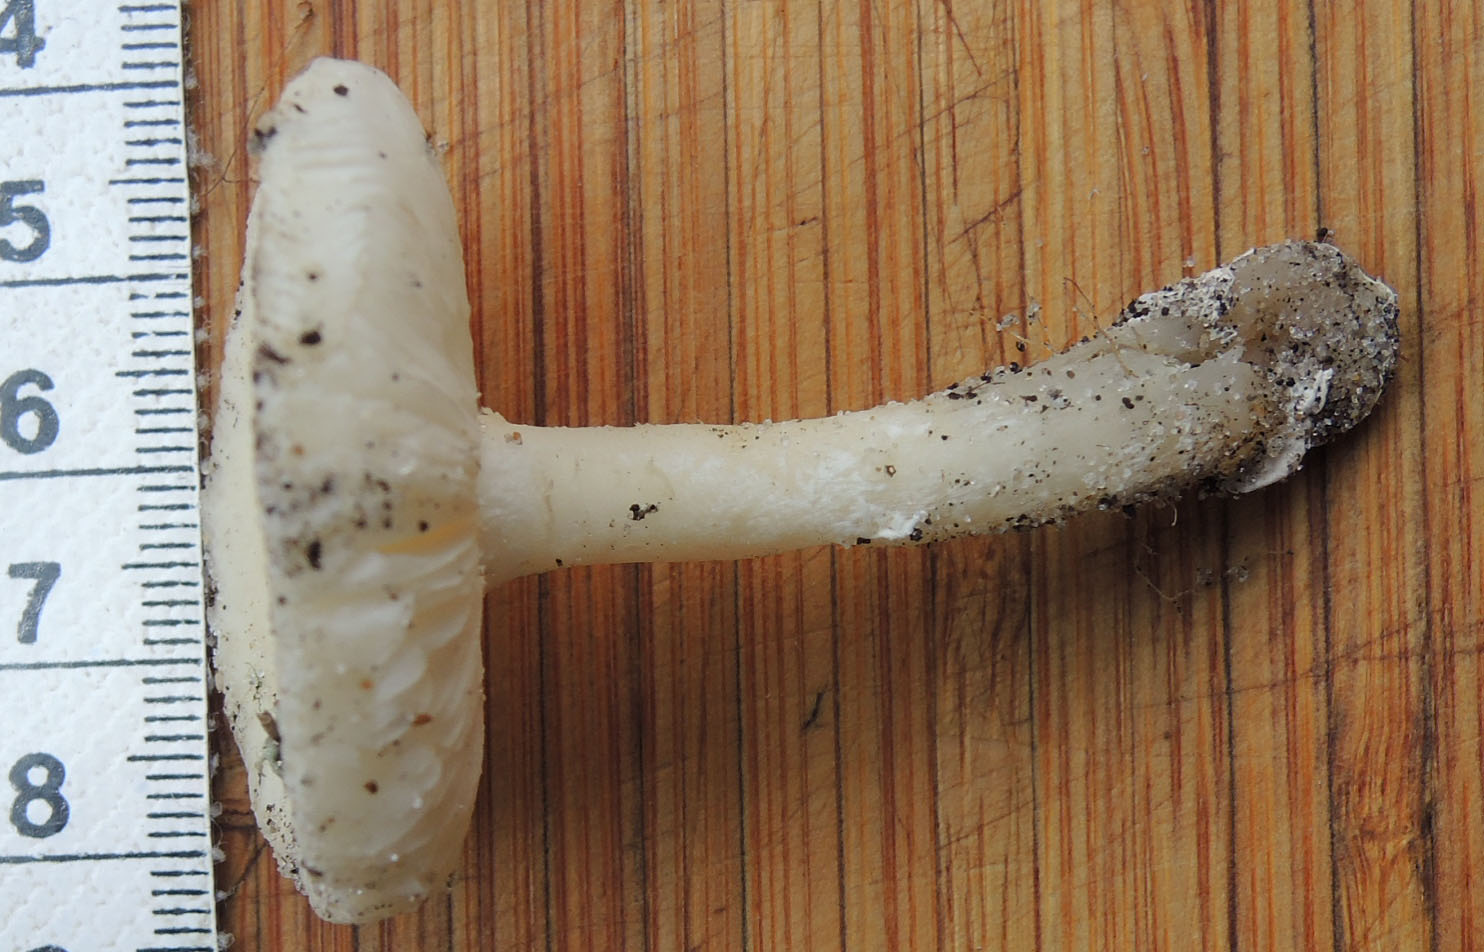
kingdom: Fungi
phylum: Basidiomycota
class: Agaricomycetes
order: Agaricales
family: Amanitaceae
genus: Amanita
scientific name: Amanita gemmata
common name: okkergul fluesvamp
